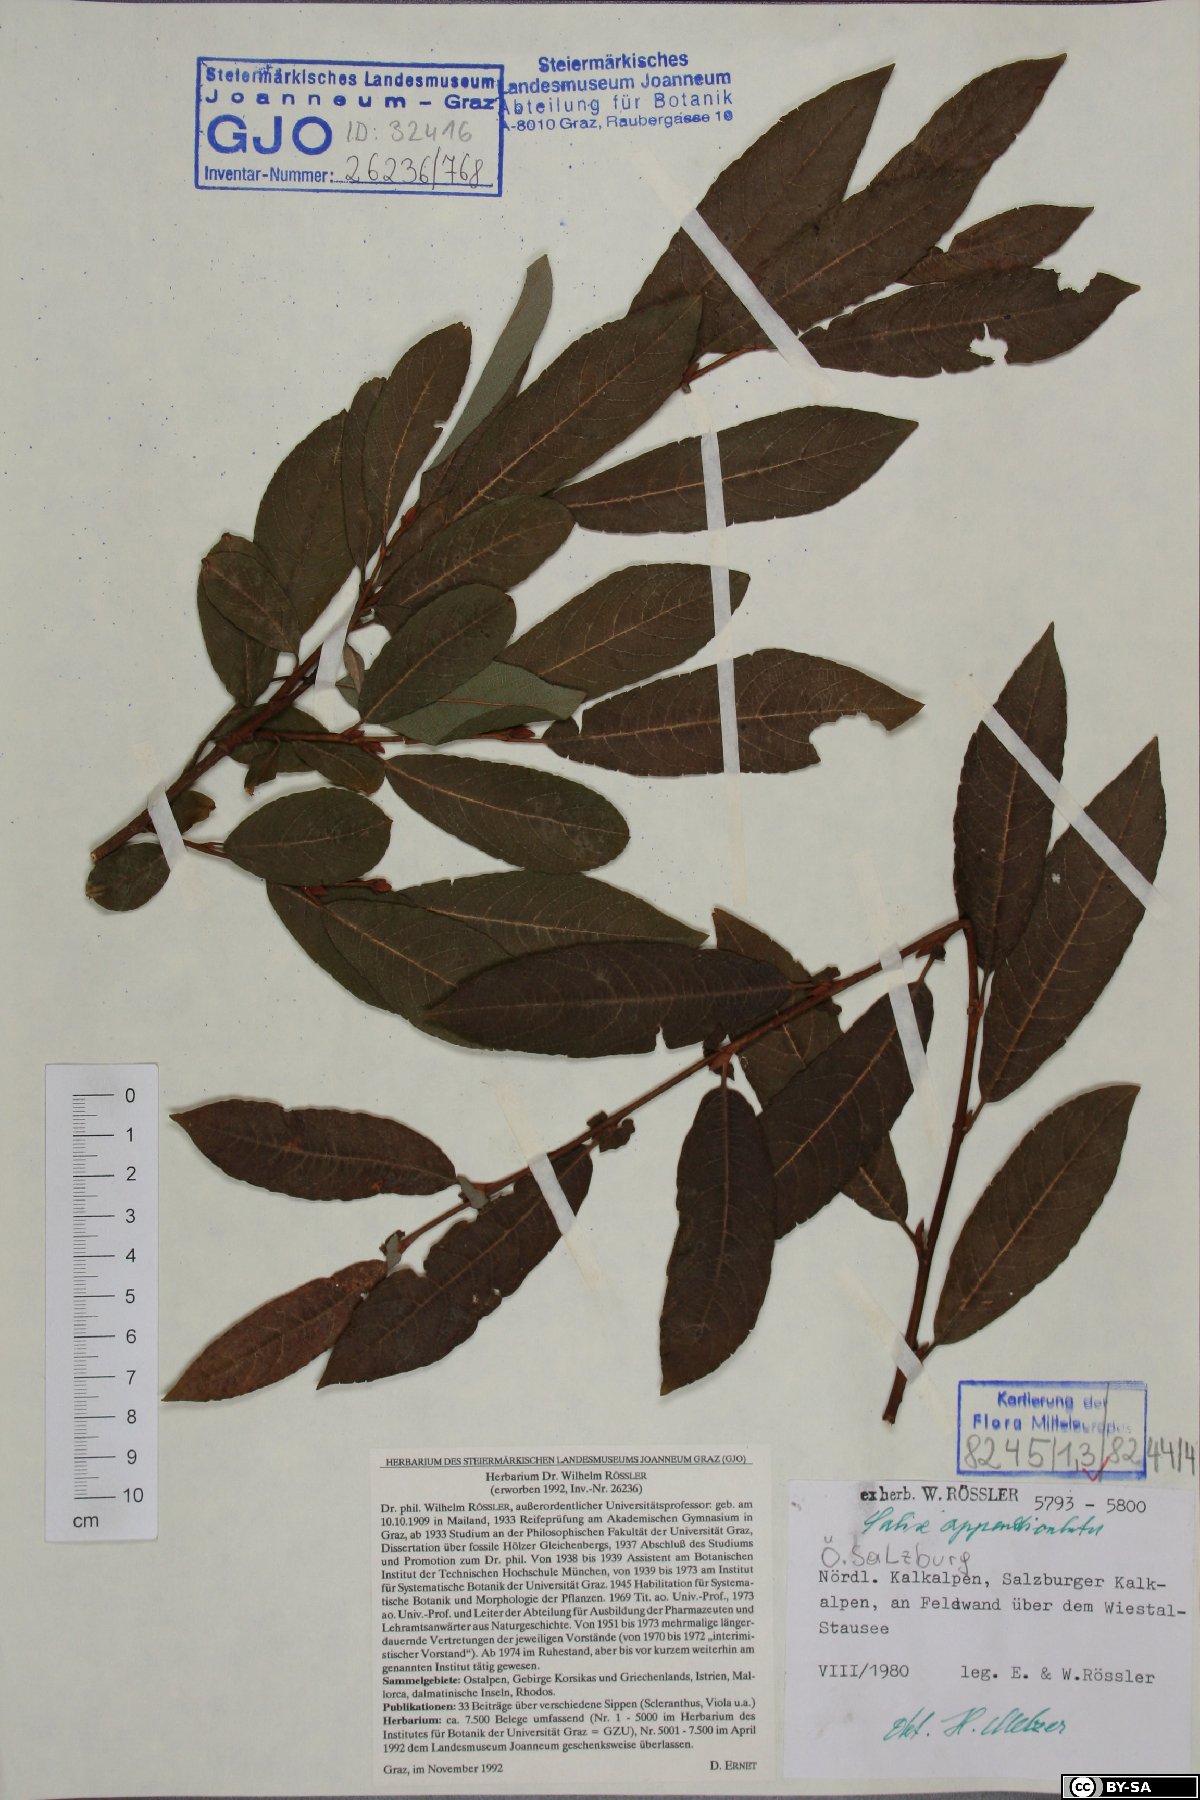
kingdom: Plantae
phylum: Tracheophyta
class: Magnoliopsida
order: Malpighiales
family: Salicaceae
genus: Salix
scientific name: Salix appendiculata
